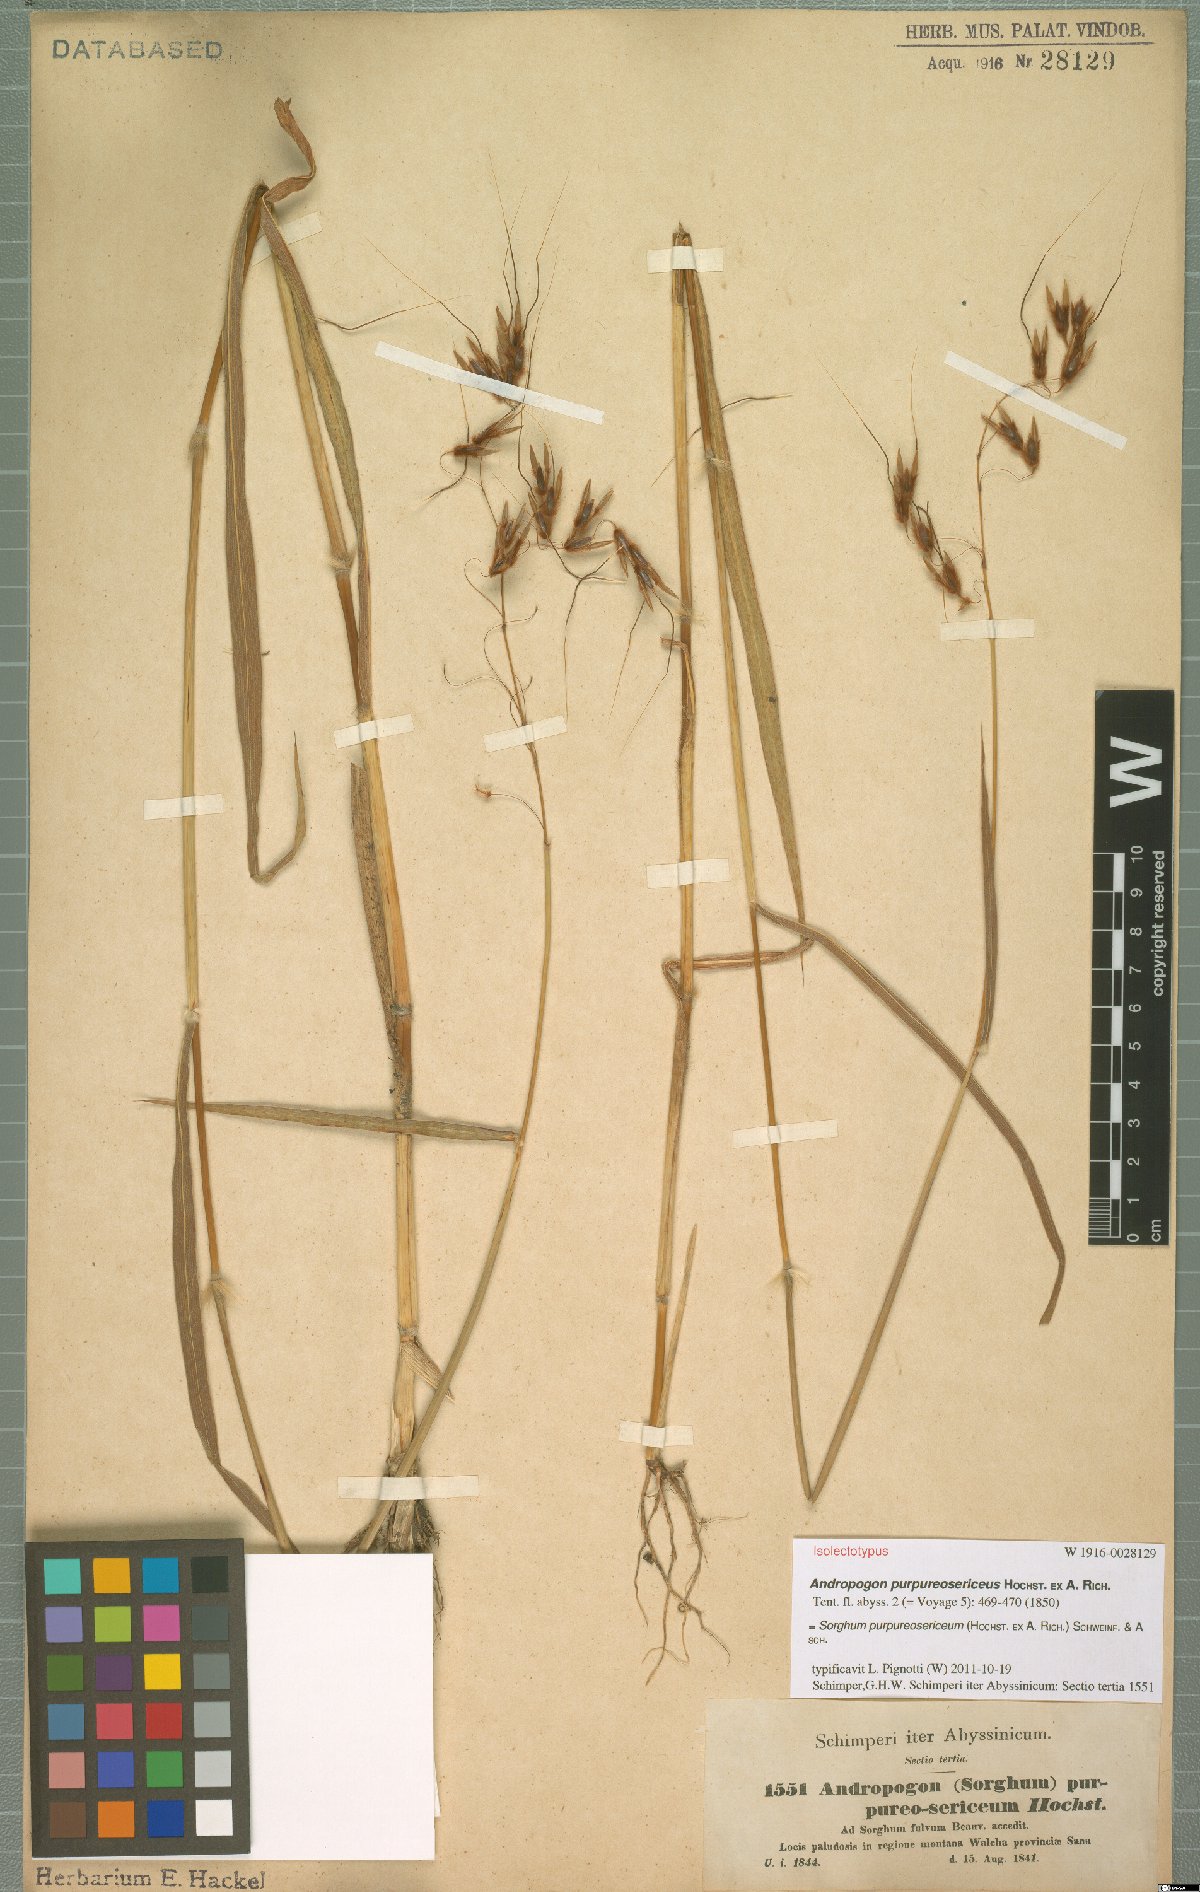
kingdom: Plantae
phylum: Tracheophyta
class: Liliopsida
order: Poales
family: Poaceae
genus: Sarga
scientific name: Sarga purpureosericea
